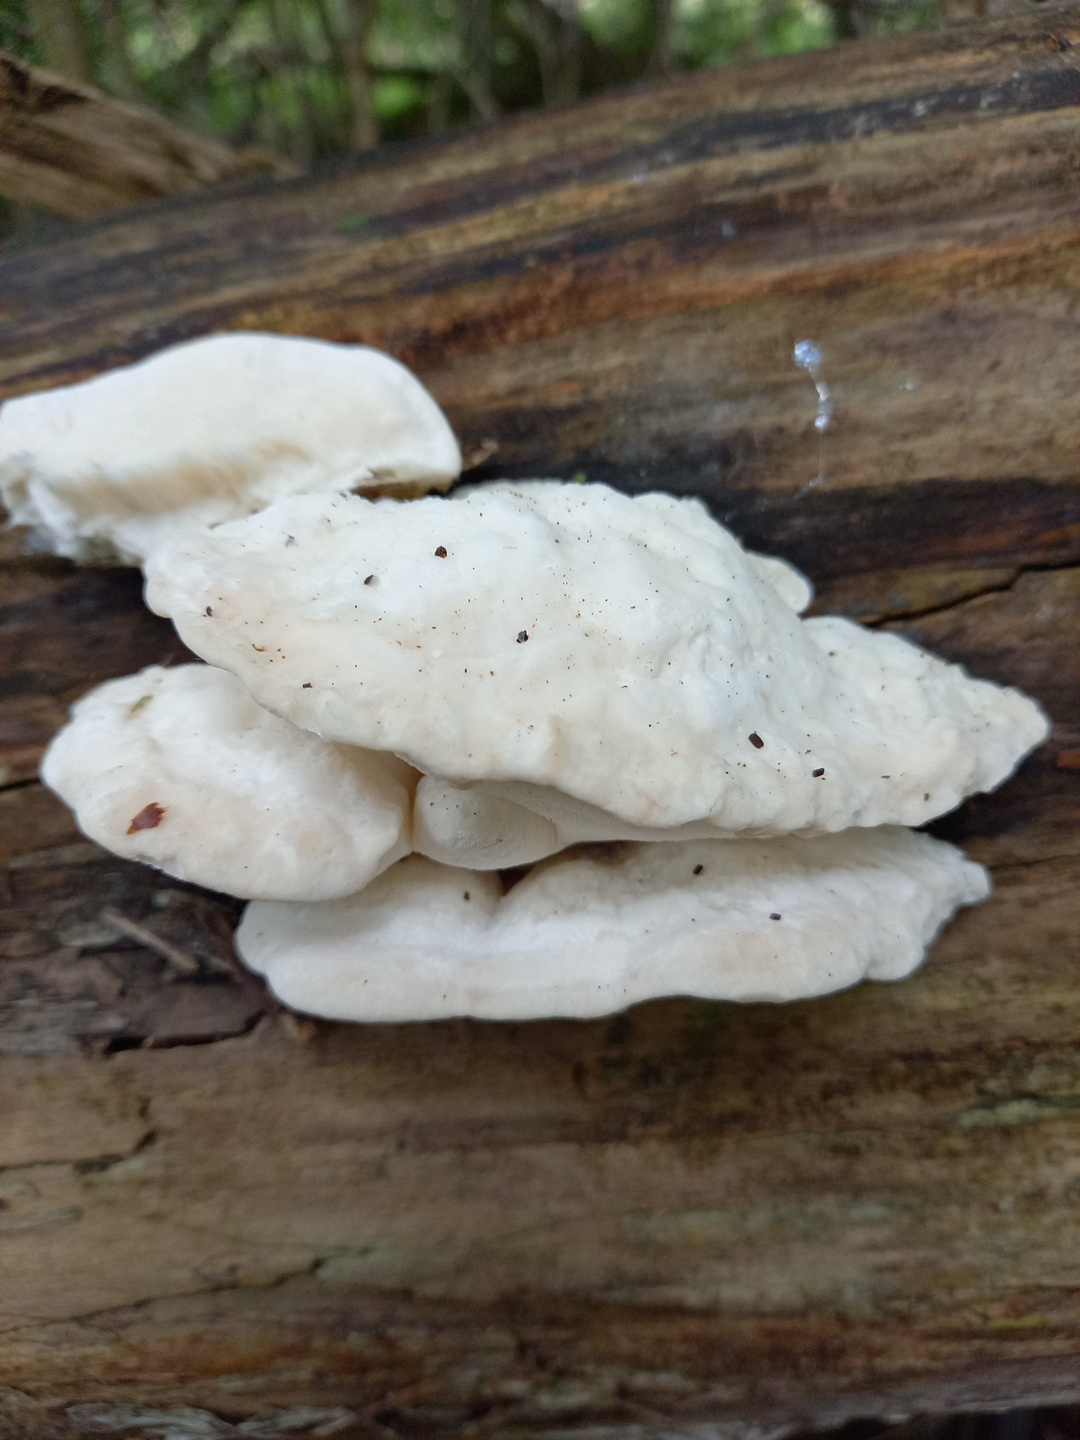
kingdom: Fungi
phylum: Basidiomycota
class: Agaricomycetes
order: Polyporales
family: Incrustoporiaceae
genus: Tyromyces
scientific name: Tyromyces lacteus
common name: mælkehvid kødporesvamp
